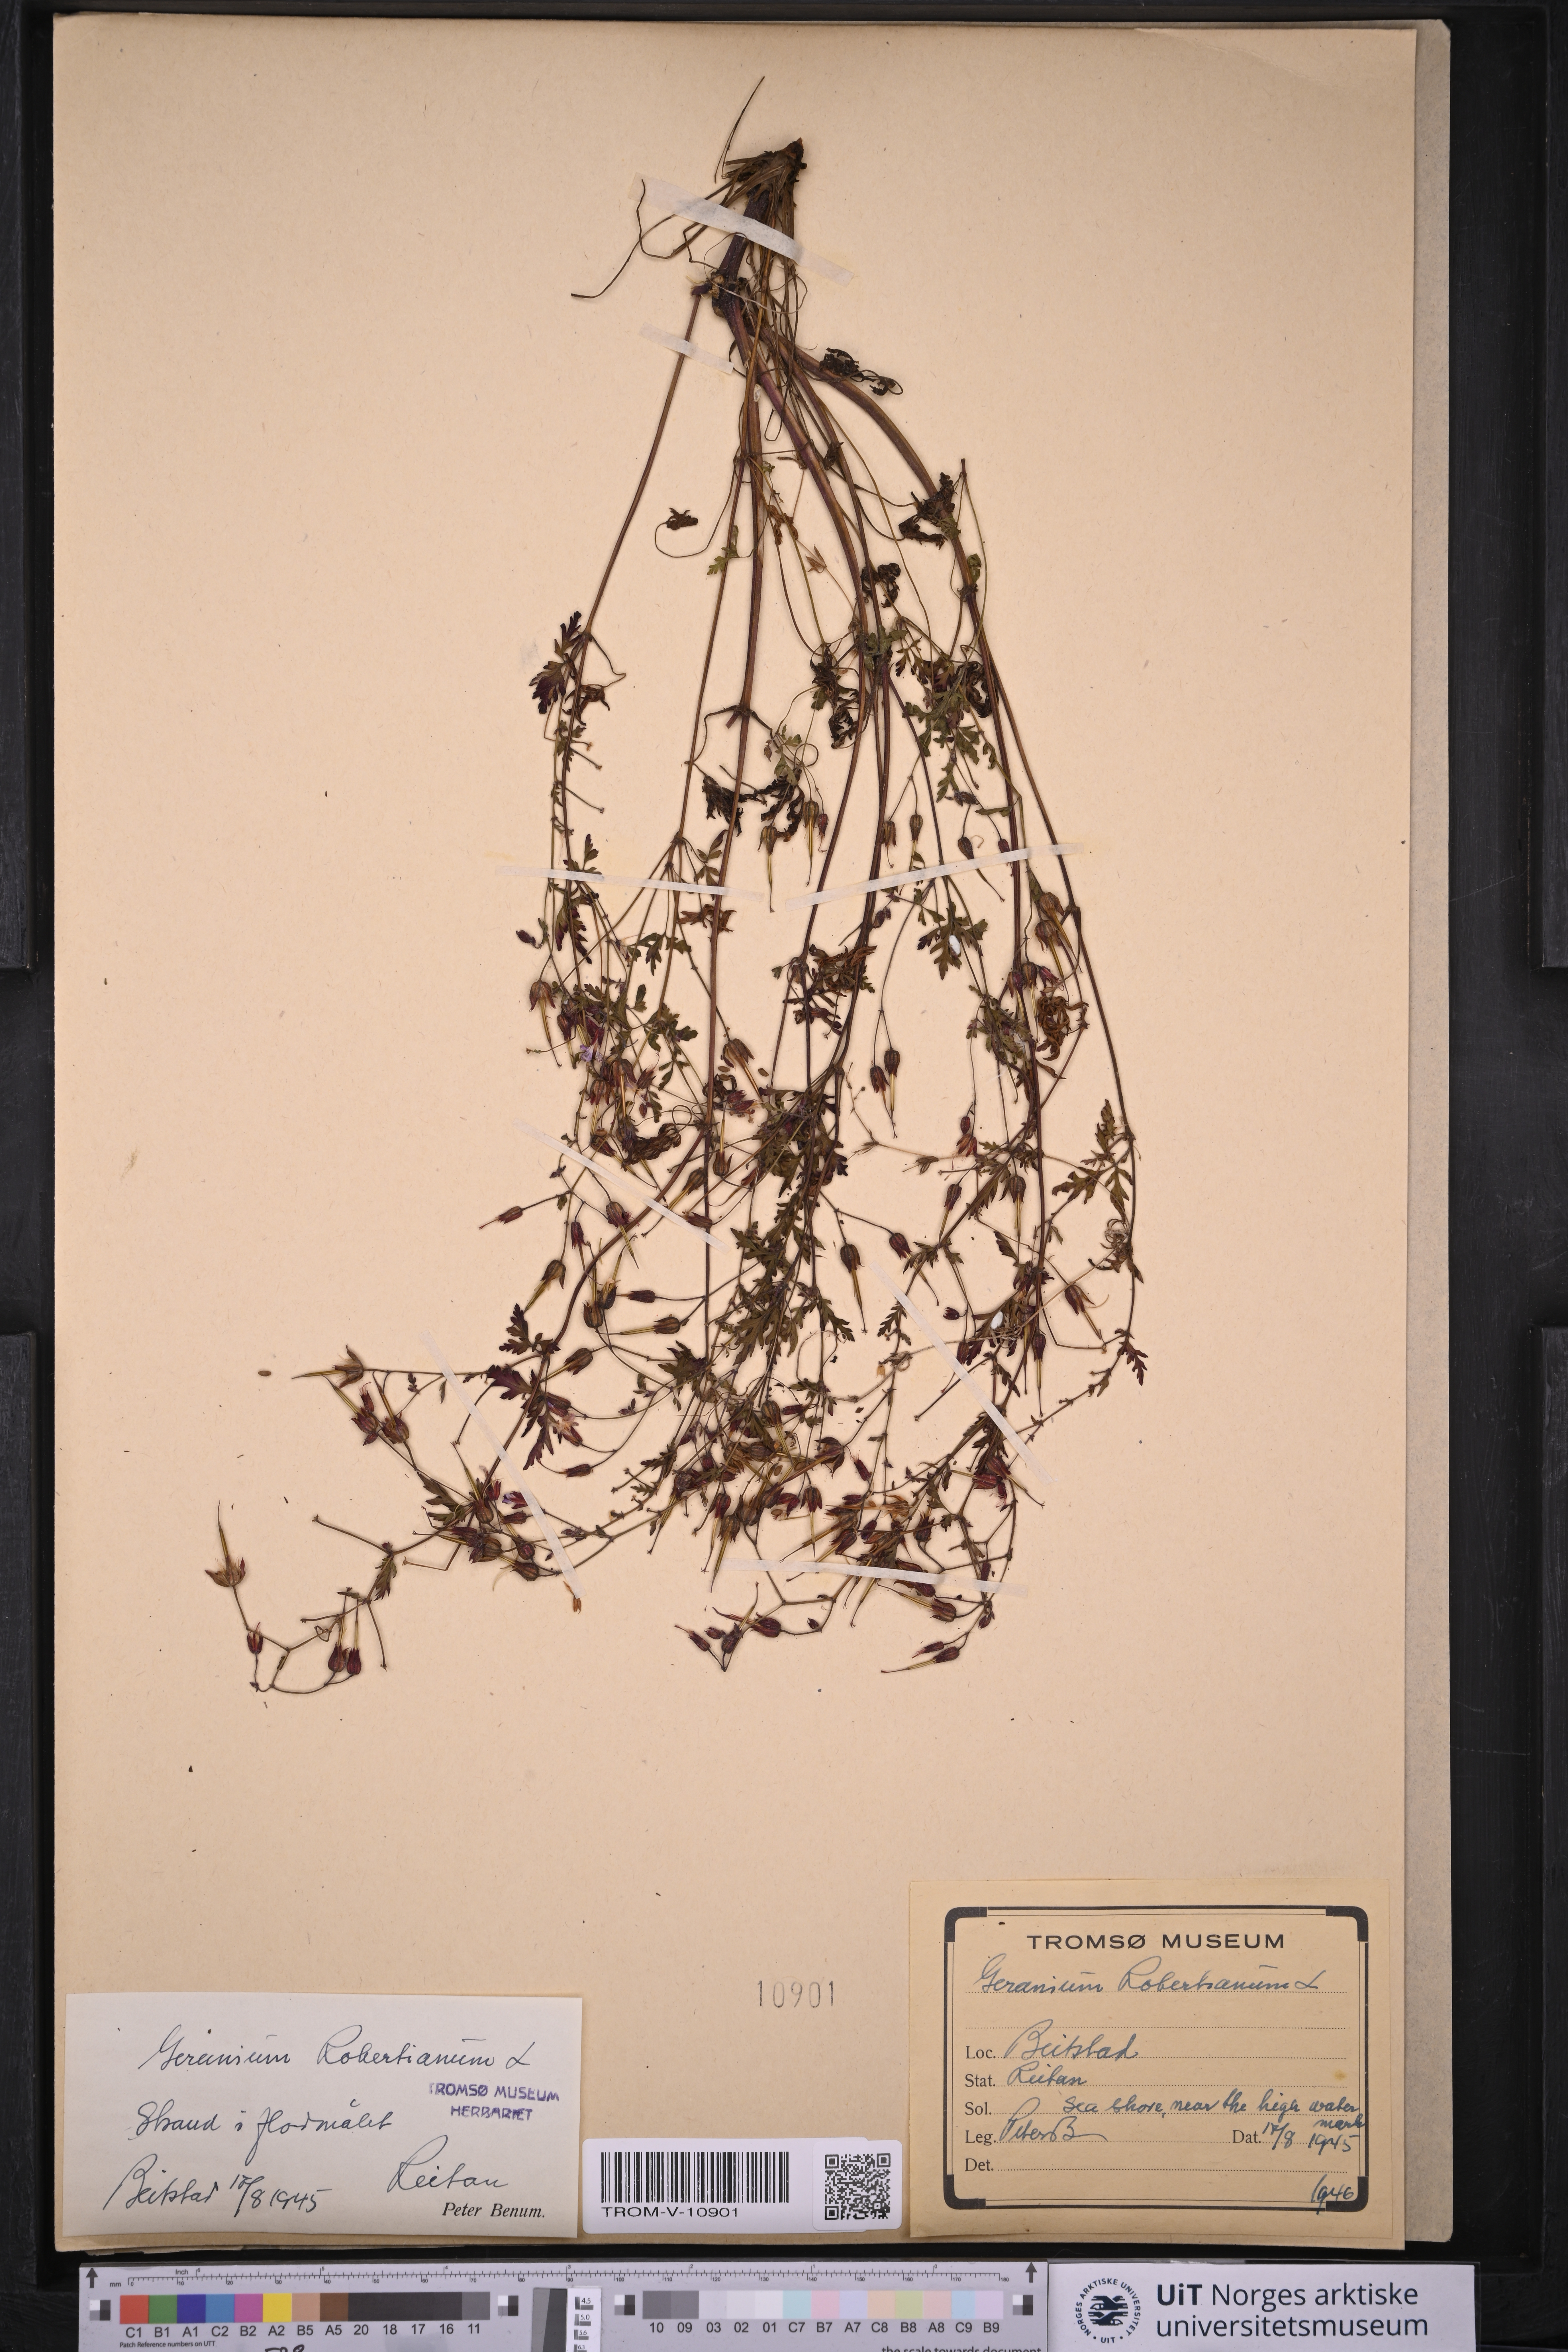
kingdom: Plantae
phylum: Tracheophyta
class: Magnoliopsida
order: Geraniales
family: Geraniaceae
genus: Geranium
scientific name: Geranium robertianum
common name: Herb-robert
